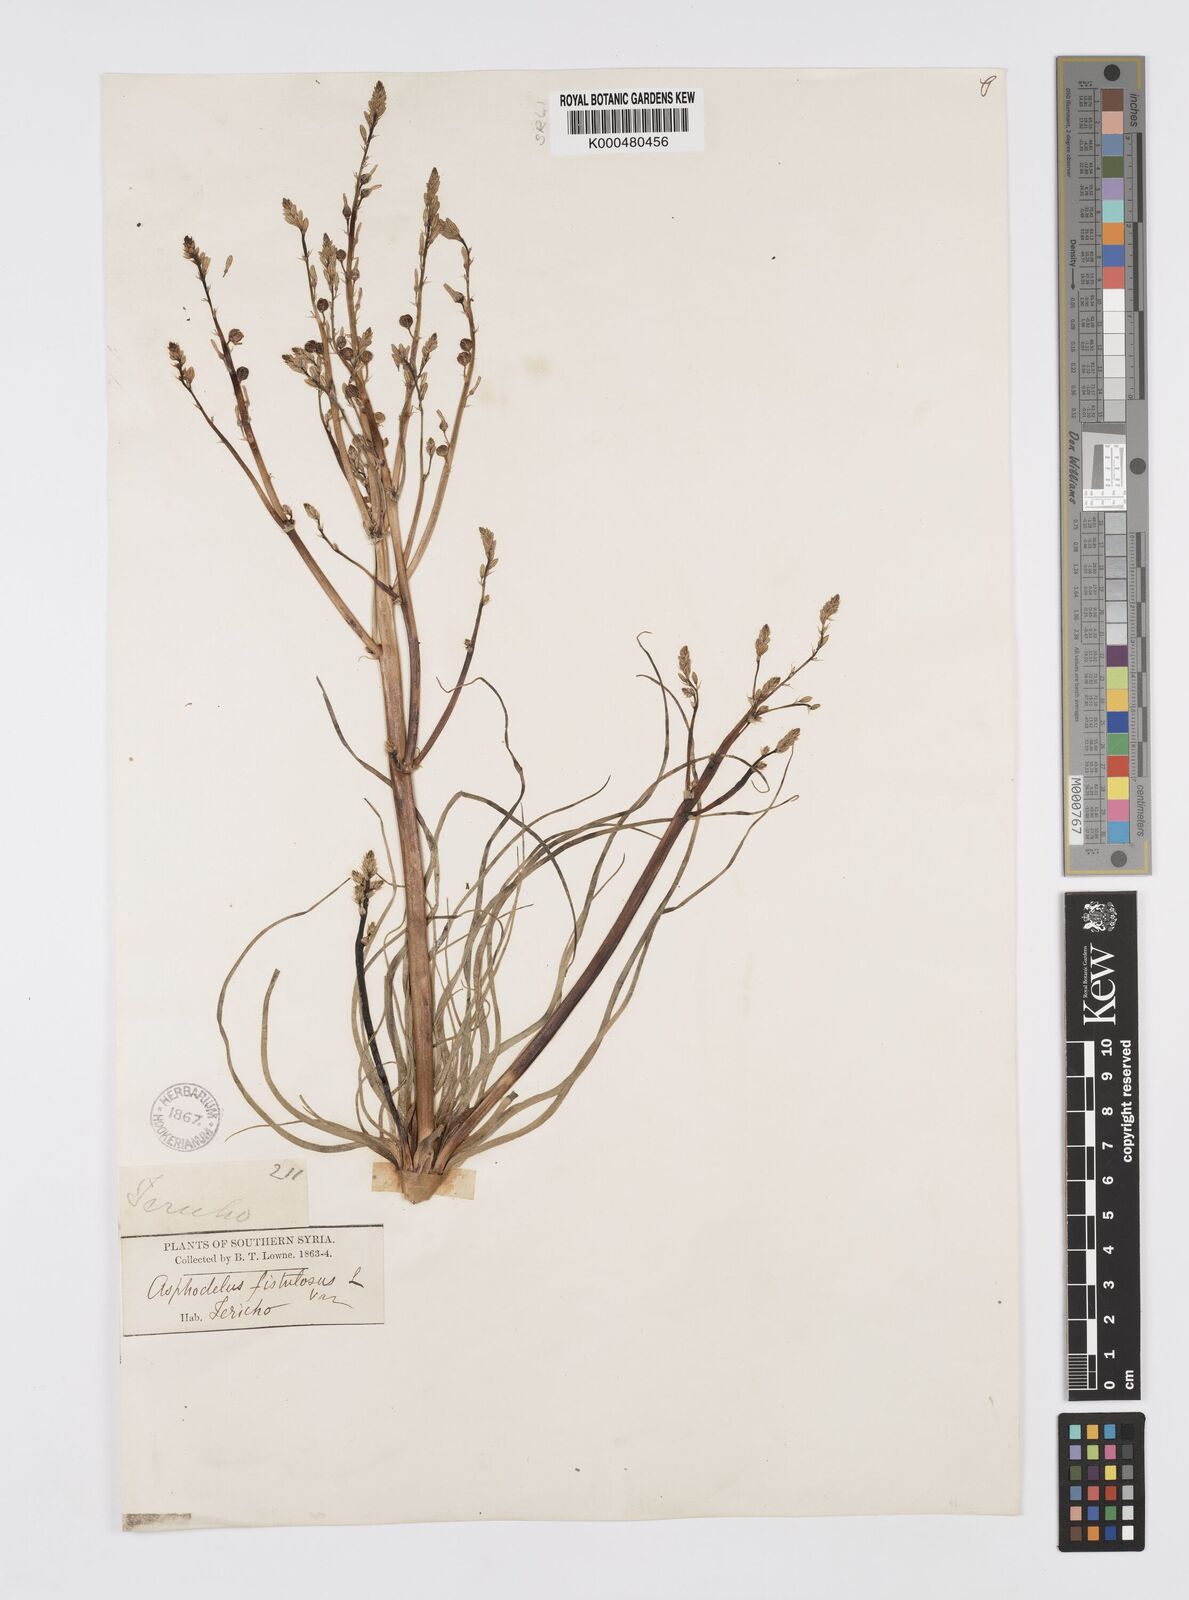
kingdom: Plantae
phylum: Tracheophyta
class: Liliopsida
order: Asparagales
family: Asphodelaceae
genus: Asphodelus
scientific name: Asphodelus fistulosus
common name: Onionweed
